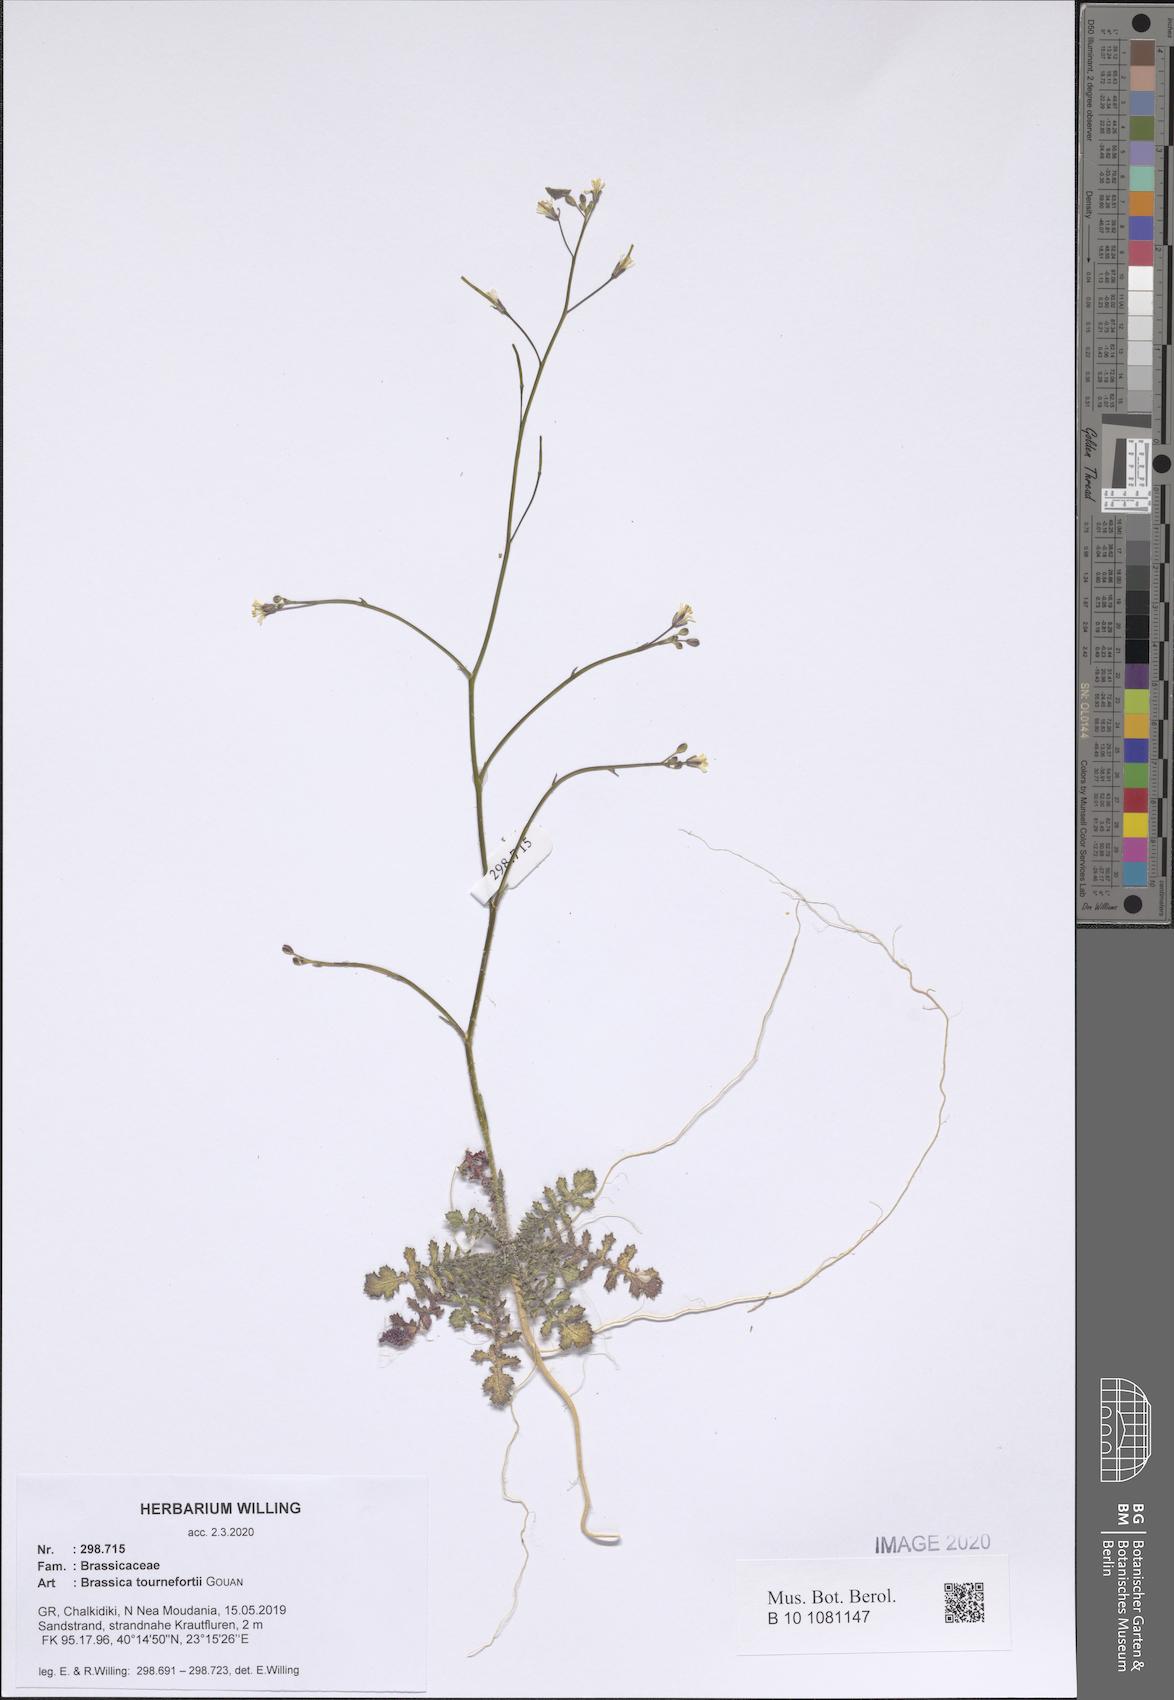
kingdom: Plantae
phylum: Tracheophyta
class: Magnoliopsida
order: Brassicales
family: Brassicaceae
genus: Brassica
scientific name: Brassica tournefortii
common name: Pale cabbage
